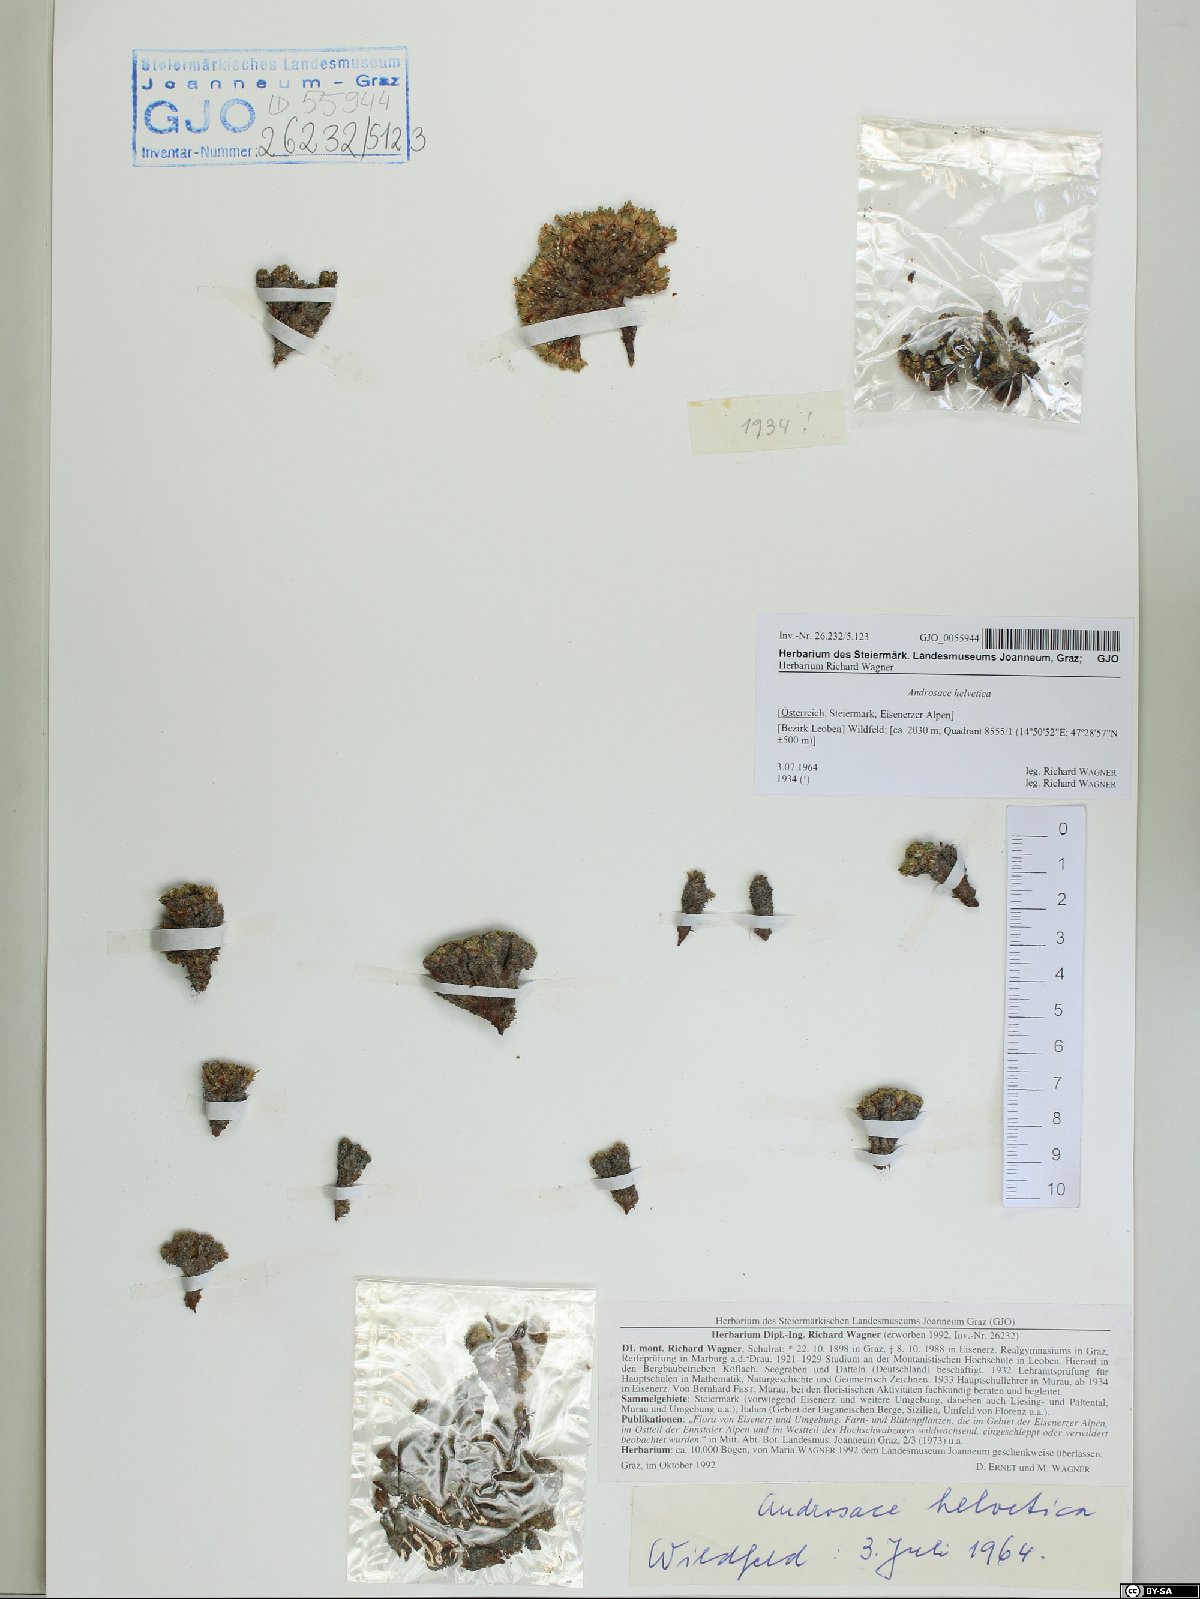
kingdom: Plantae
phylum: Tracheophyta
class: Magnoliopsida
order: Ericales
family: Primulaceae
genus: Androsace
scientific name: Androsace helvetica
